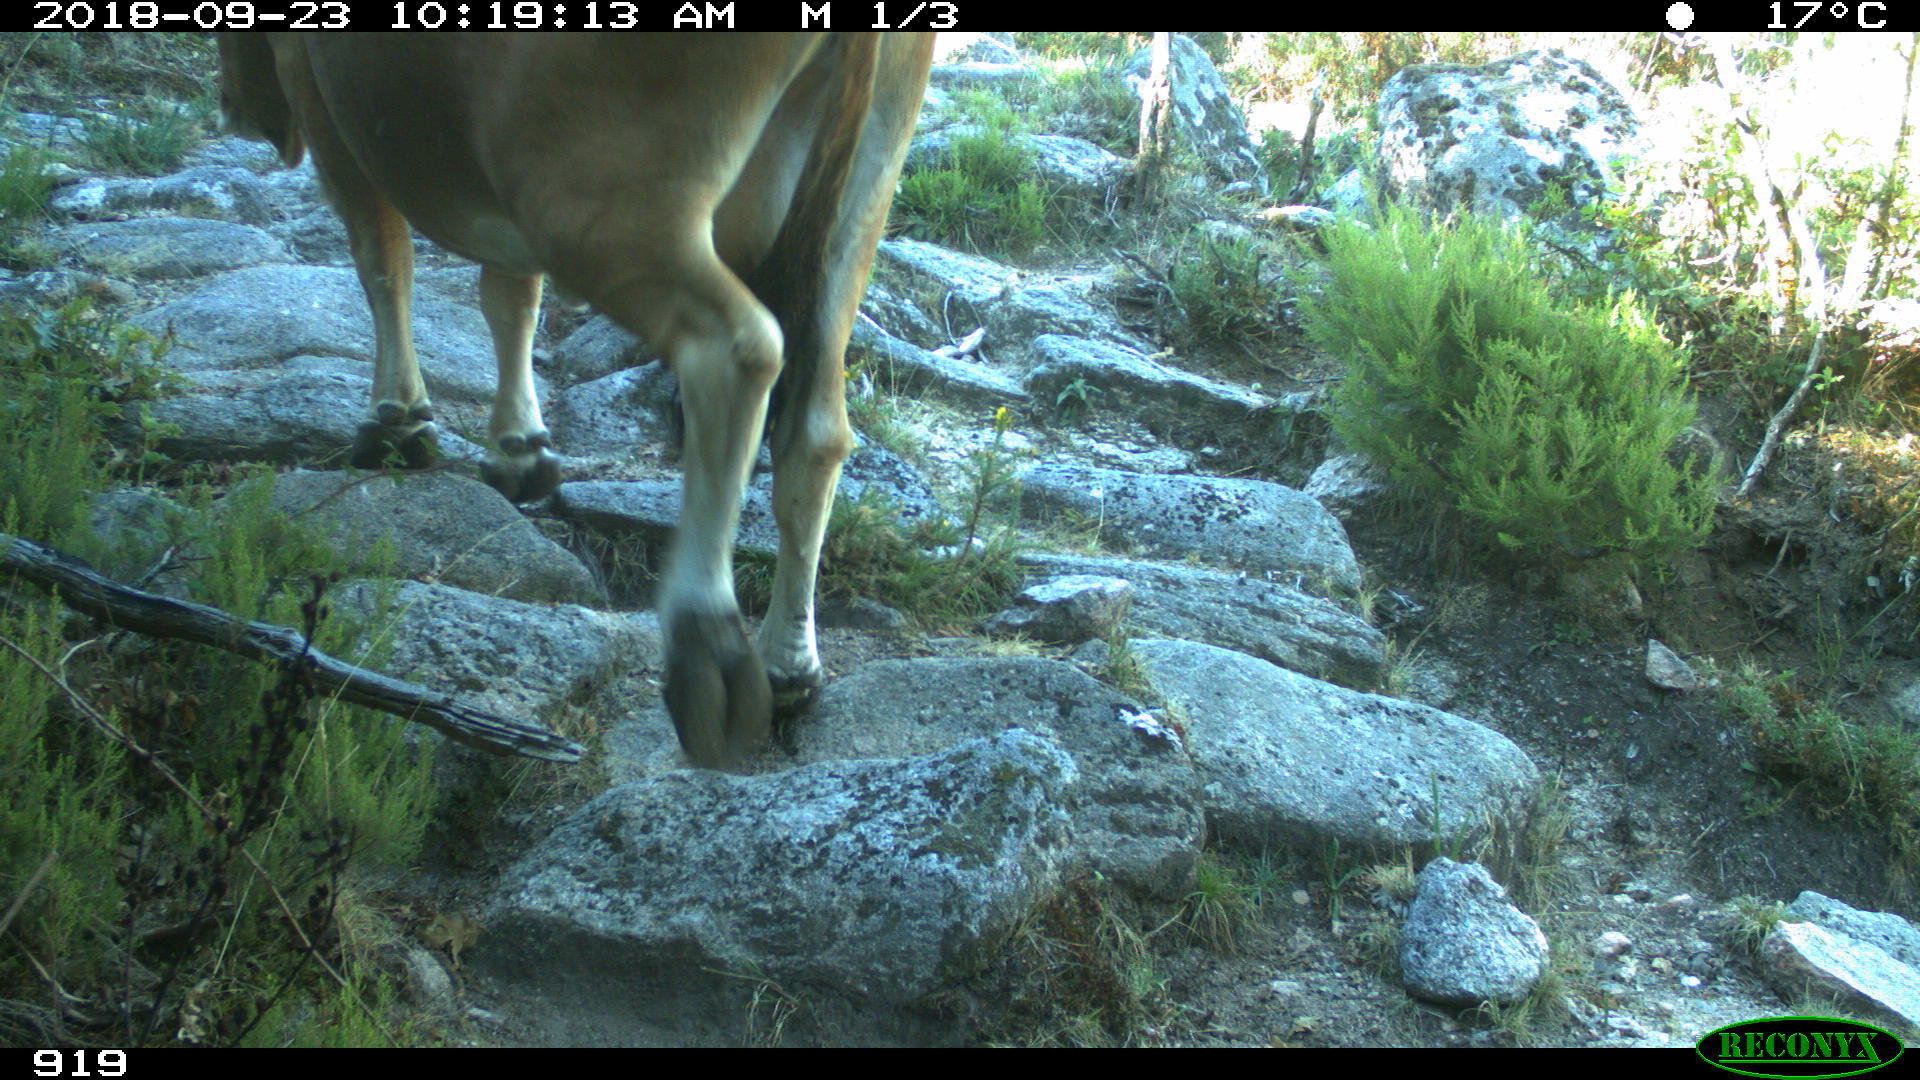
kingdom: Animalia
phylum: Chordata
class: Mammalia
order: Artiodactyla
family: Bovidae
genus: Bos
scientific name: Bos taurus
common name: Domesticated cattle
